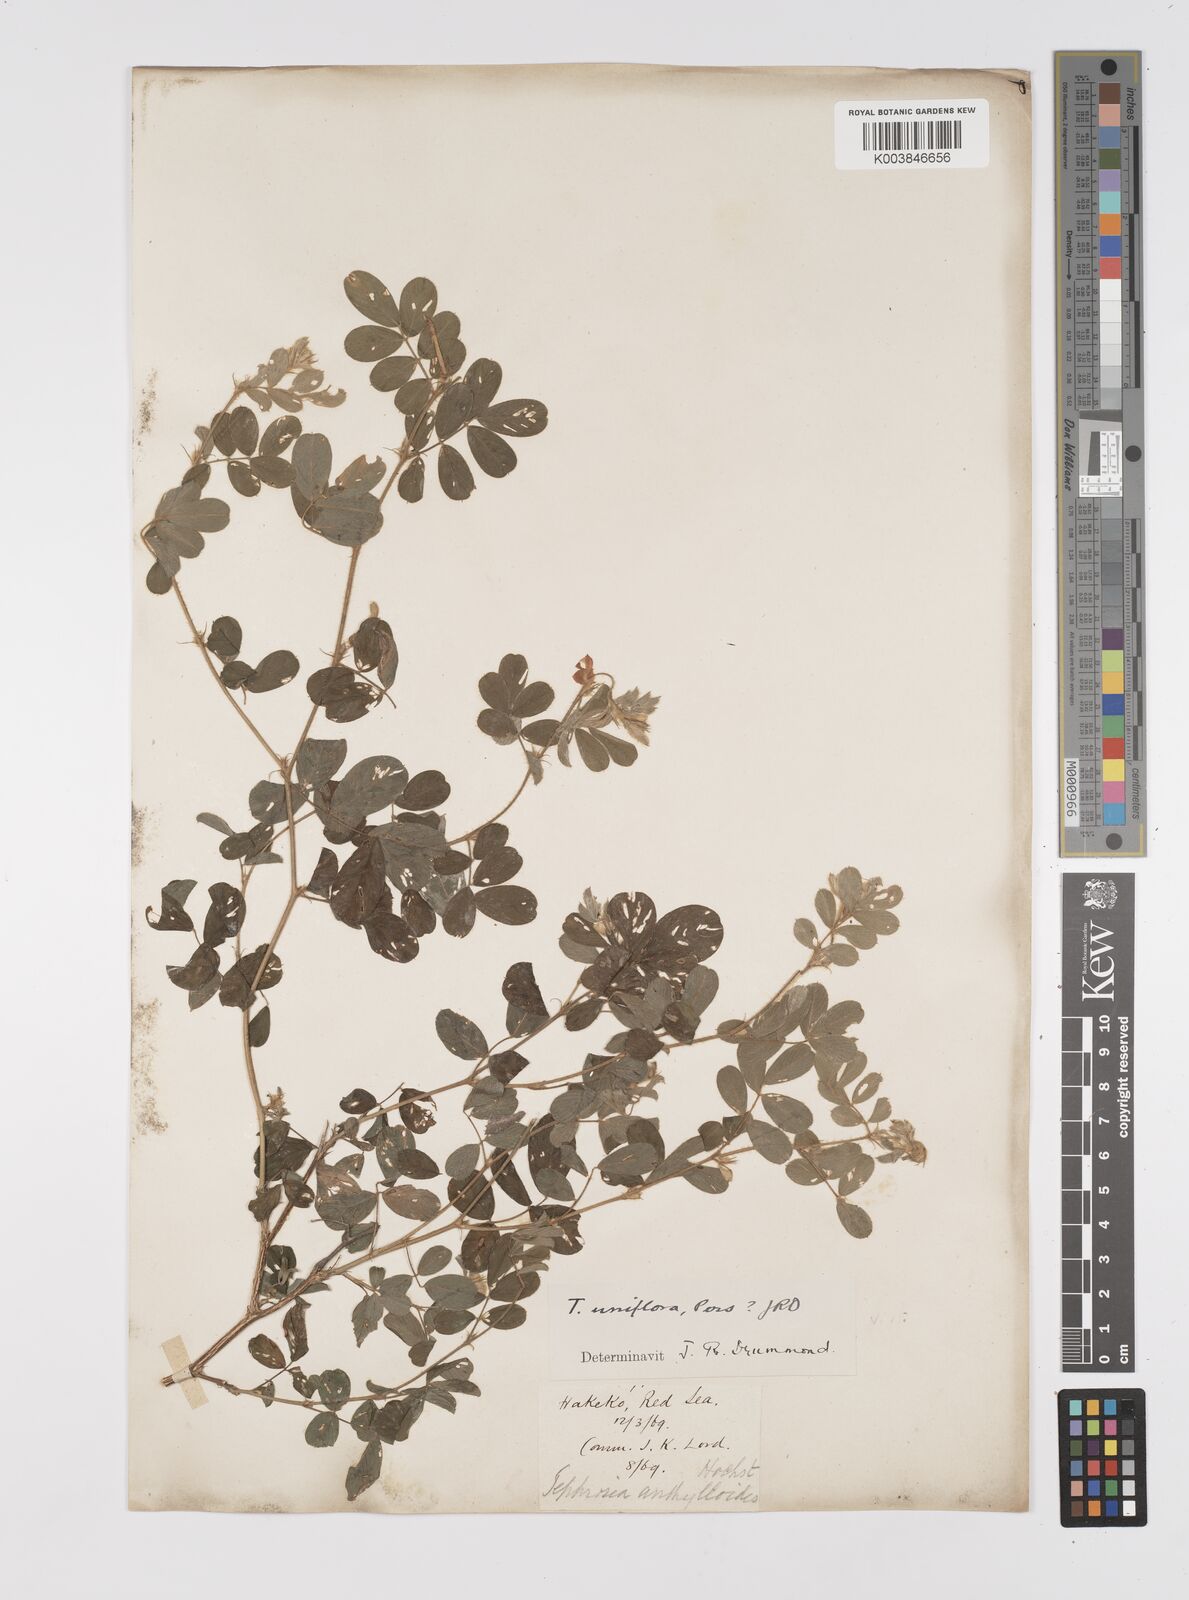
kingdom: Plantae
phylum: Tracheophyta
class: Magnoliopsida
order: Fabales
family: Fabaceae
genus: Tephrosia
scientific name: Tephrosia uniflora
